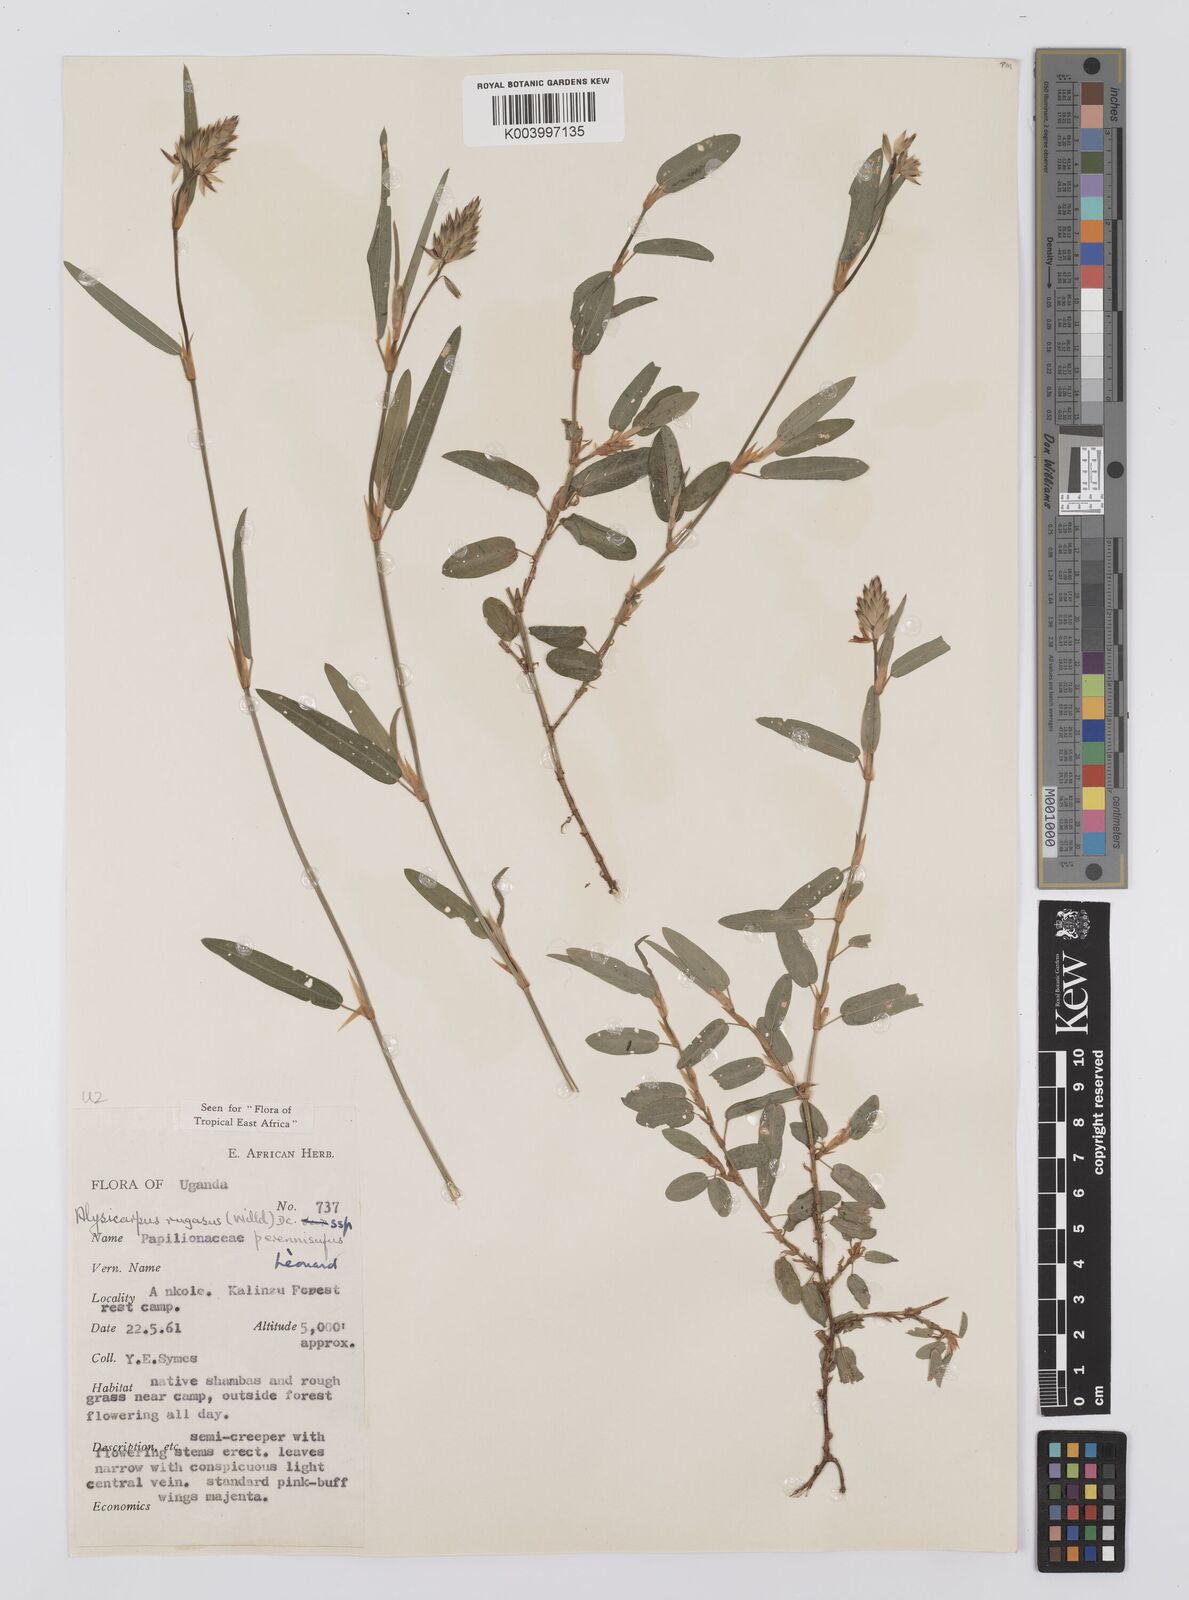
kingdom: Plantae
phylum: Tracheophyta
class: Magnoliopsida
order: Fabales
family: Fabaceae
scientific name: Fabaceae
